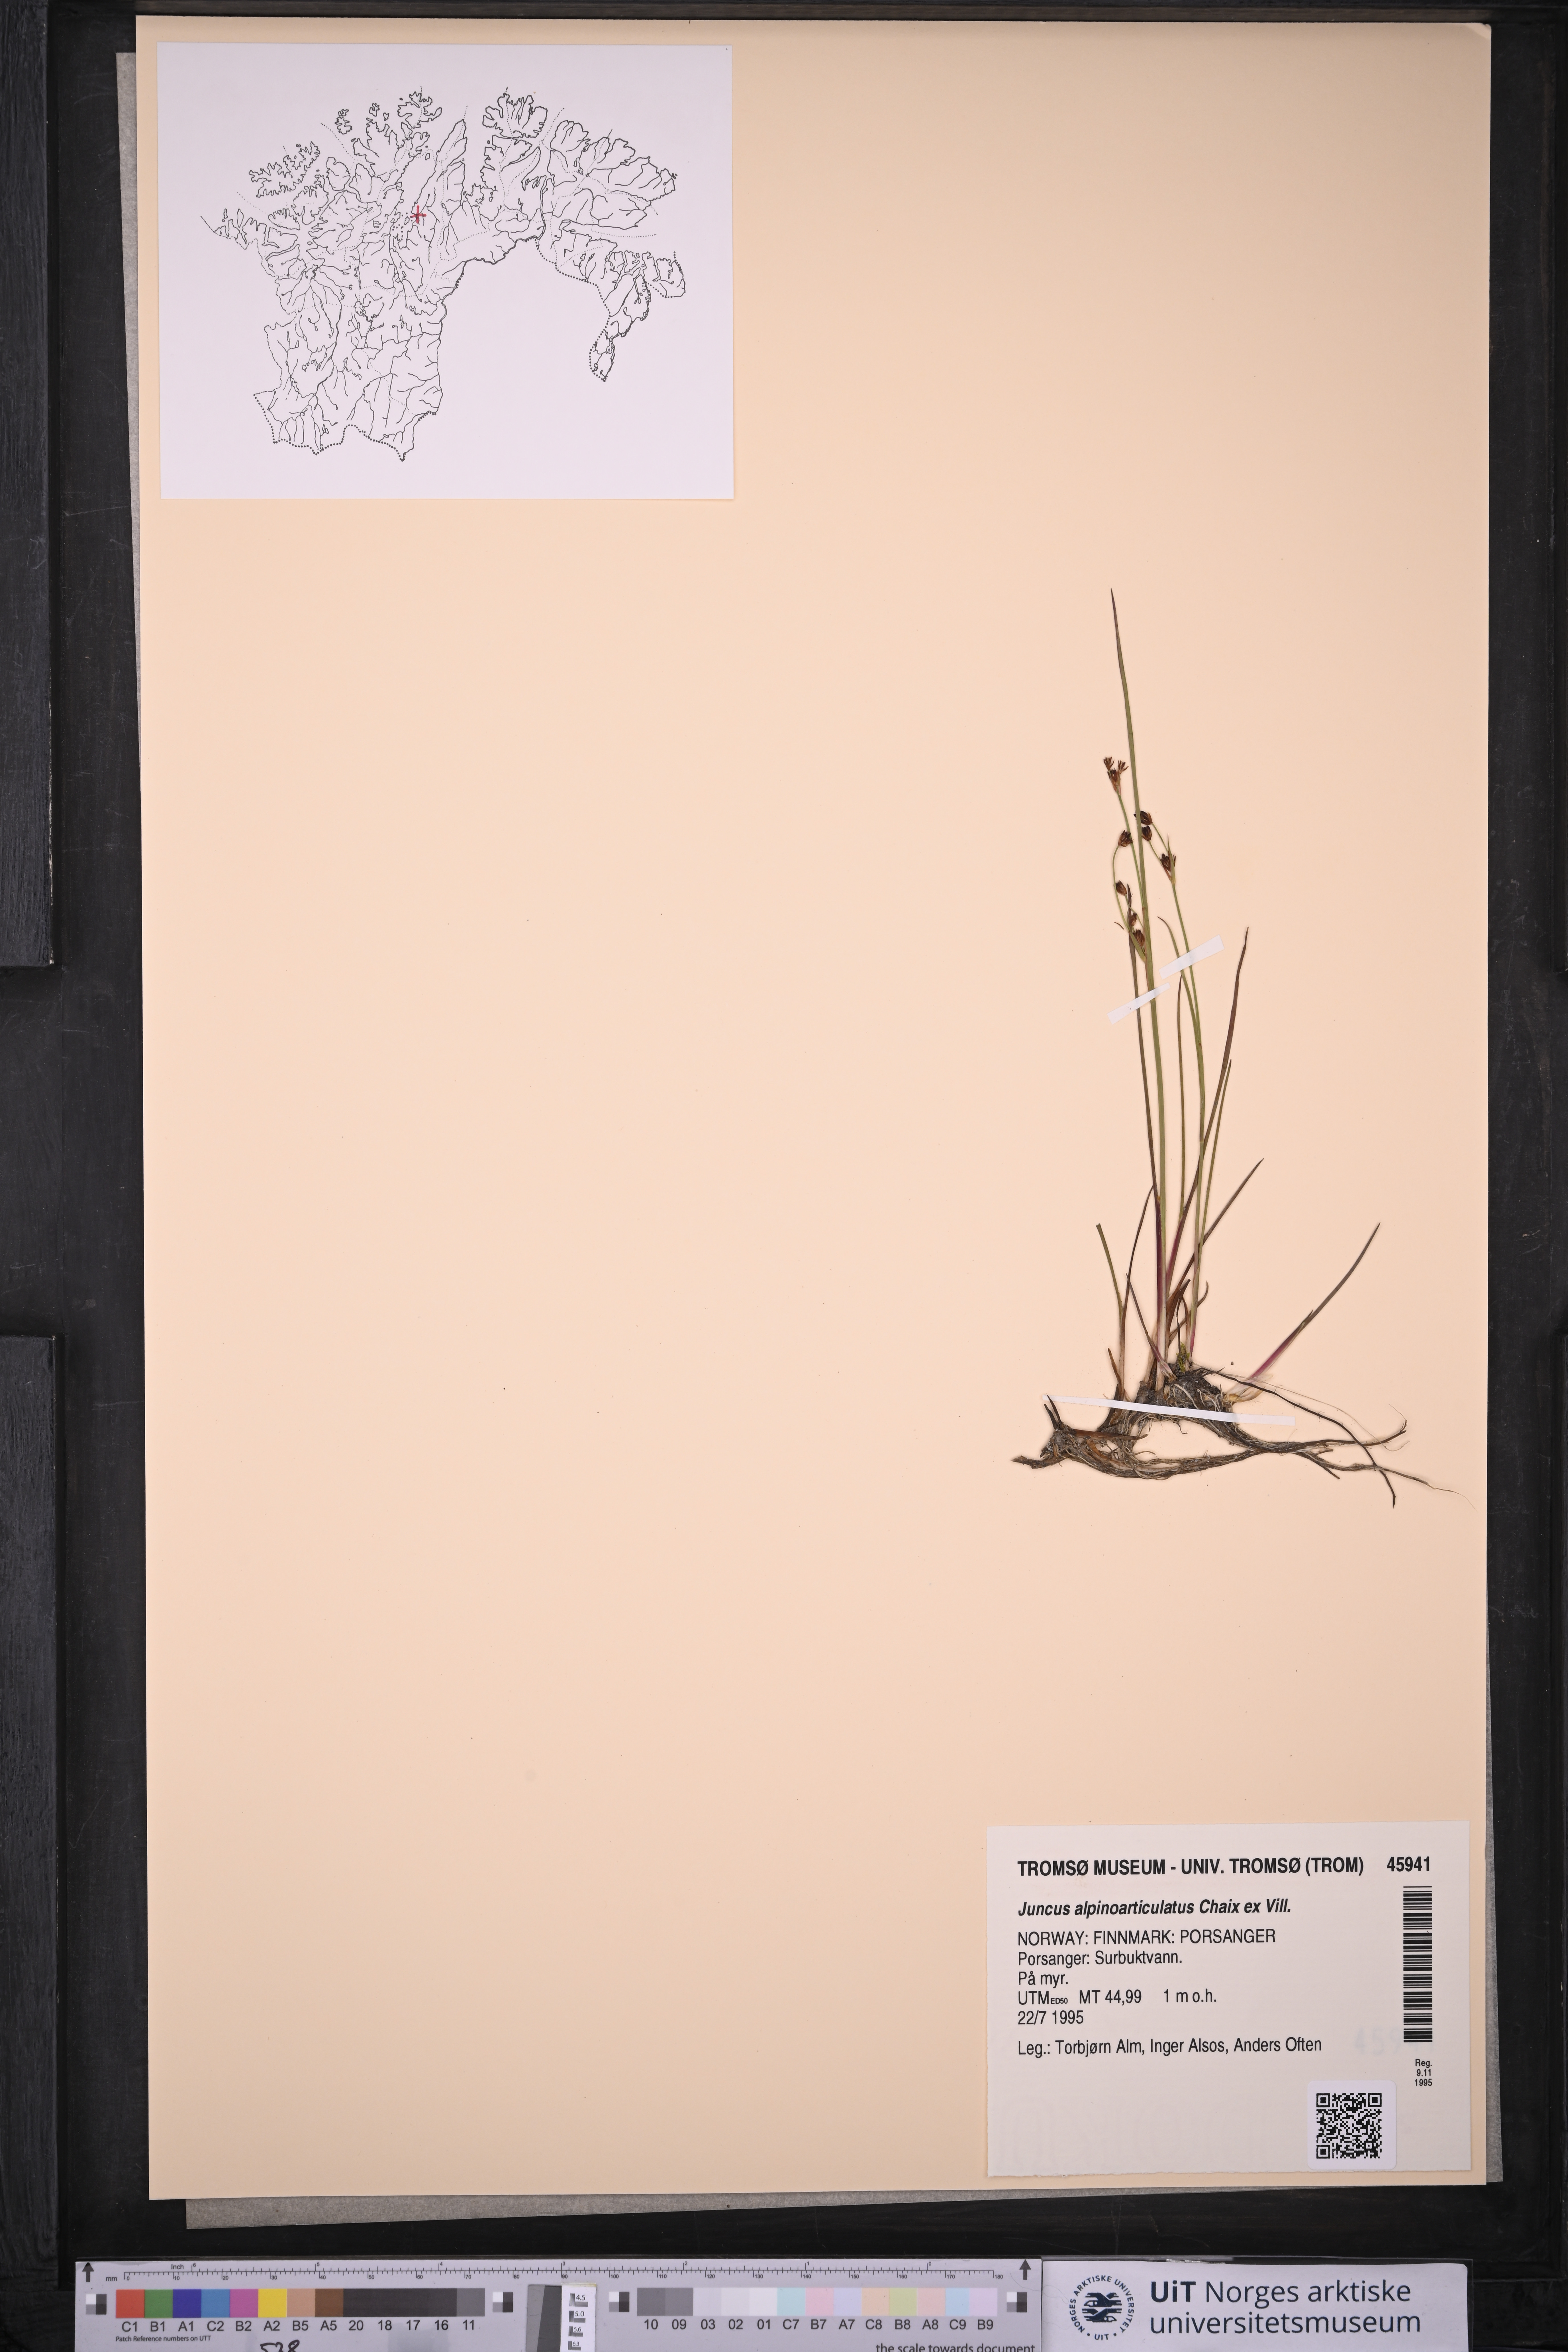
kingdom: Plantae
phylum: Tracheophyta
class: Liliopsida
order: Poales
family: Juncaceae
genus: Juncus
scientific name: Juncus alpinoarticulatus
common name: Alpine rush
